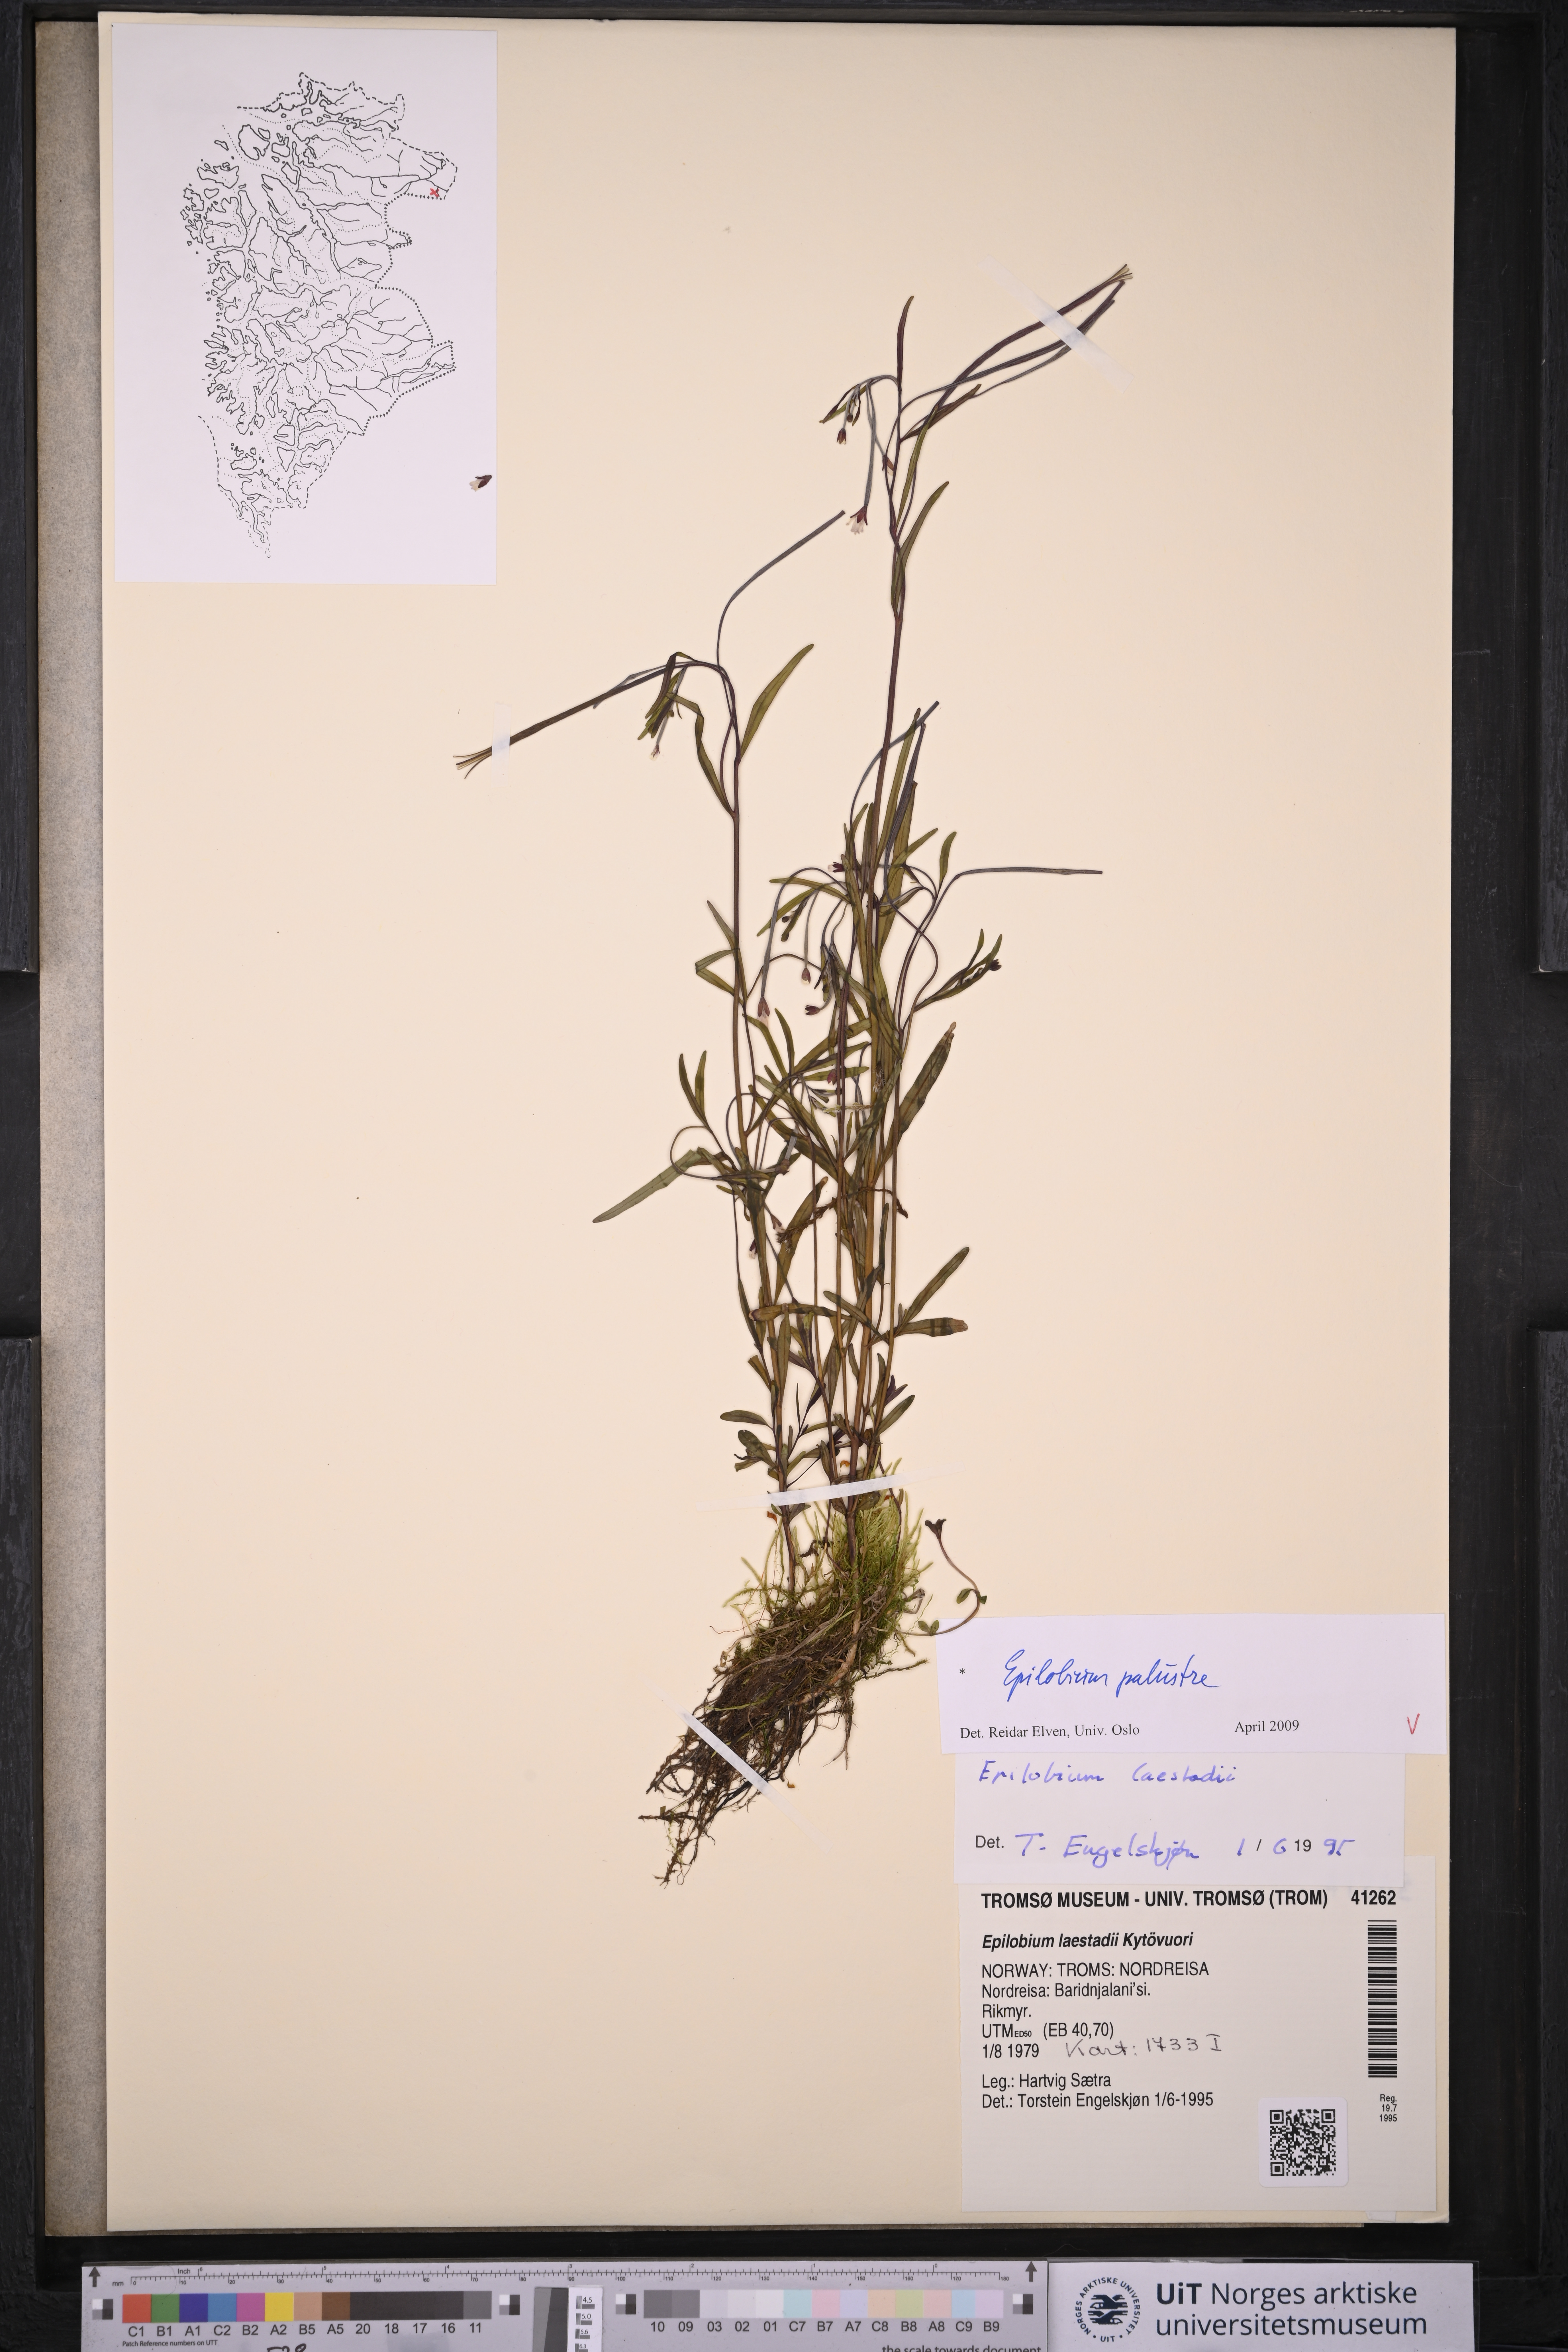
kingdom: Plantae
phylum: Tracheophyta
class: Magnoliopsida
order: Myrtales
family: Onagraceae
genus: Epilobium
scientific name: Epilobium palustre
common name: Marsh willowherb
